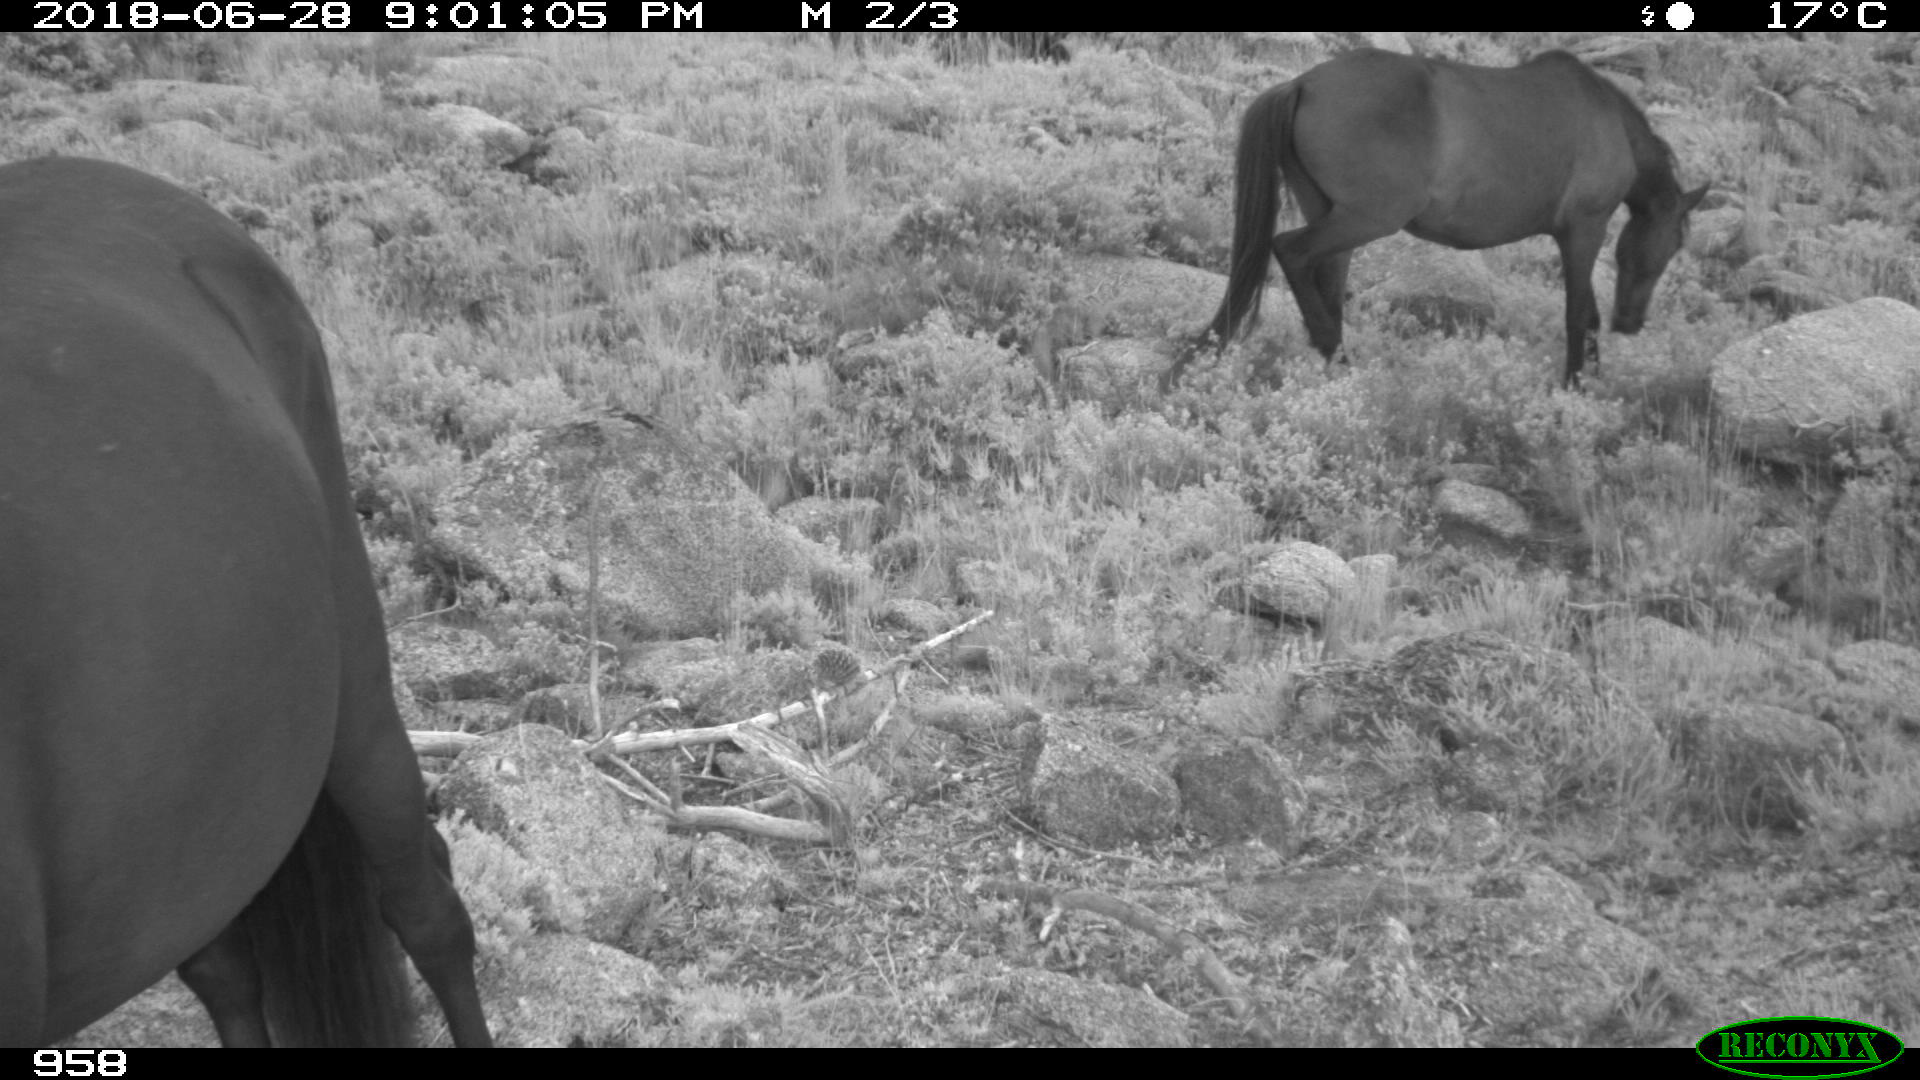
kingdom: Animalia
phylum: Chordata
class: Mammalia
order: Perissodactyla
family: Equidae
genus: Equus
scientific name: Equus caballus
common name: Horse
